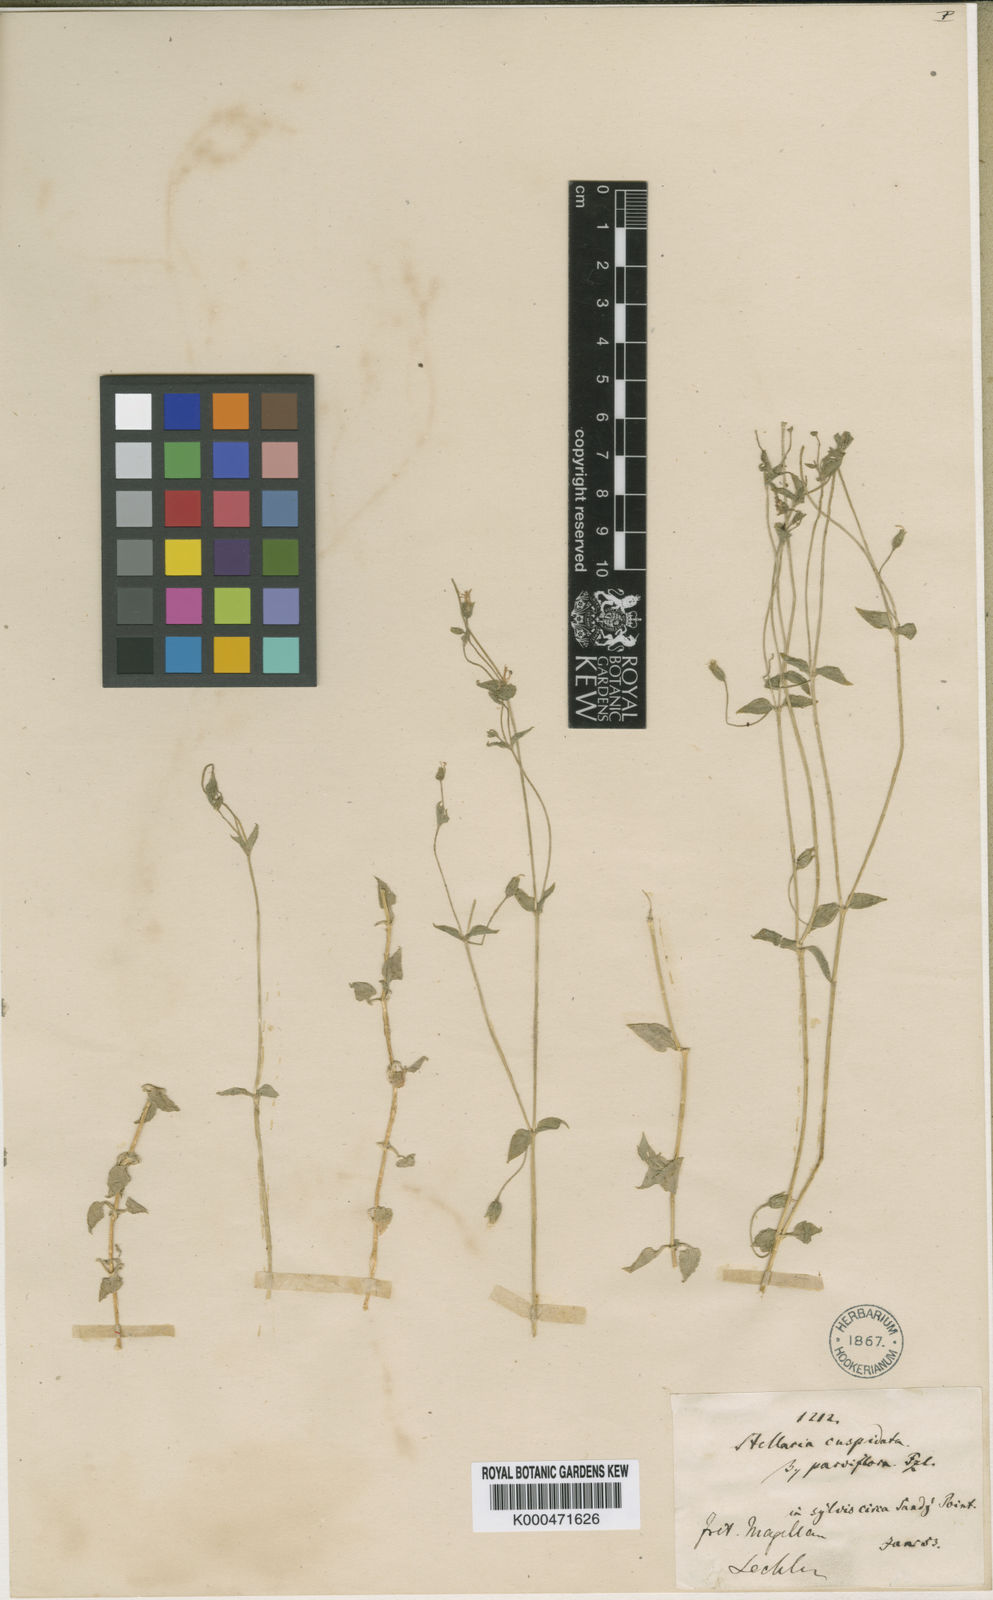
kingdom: Plantae
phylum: Tracheophyta
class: Magnoliopsida
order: Caryophyllales
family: Caryophyllaceae
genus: Stellaria
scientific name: Stellaria cuspidata
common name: Mexican chickweed
